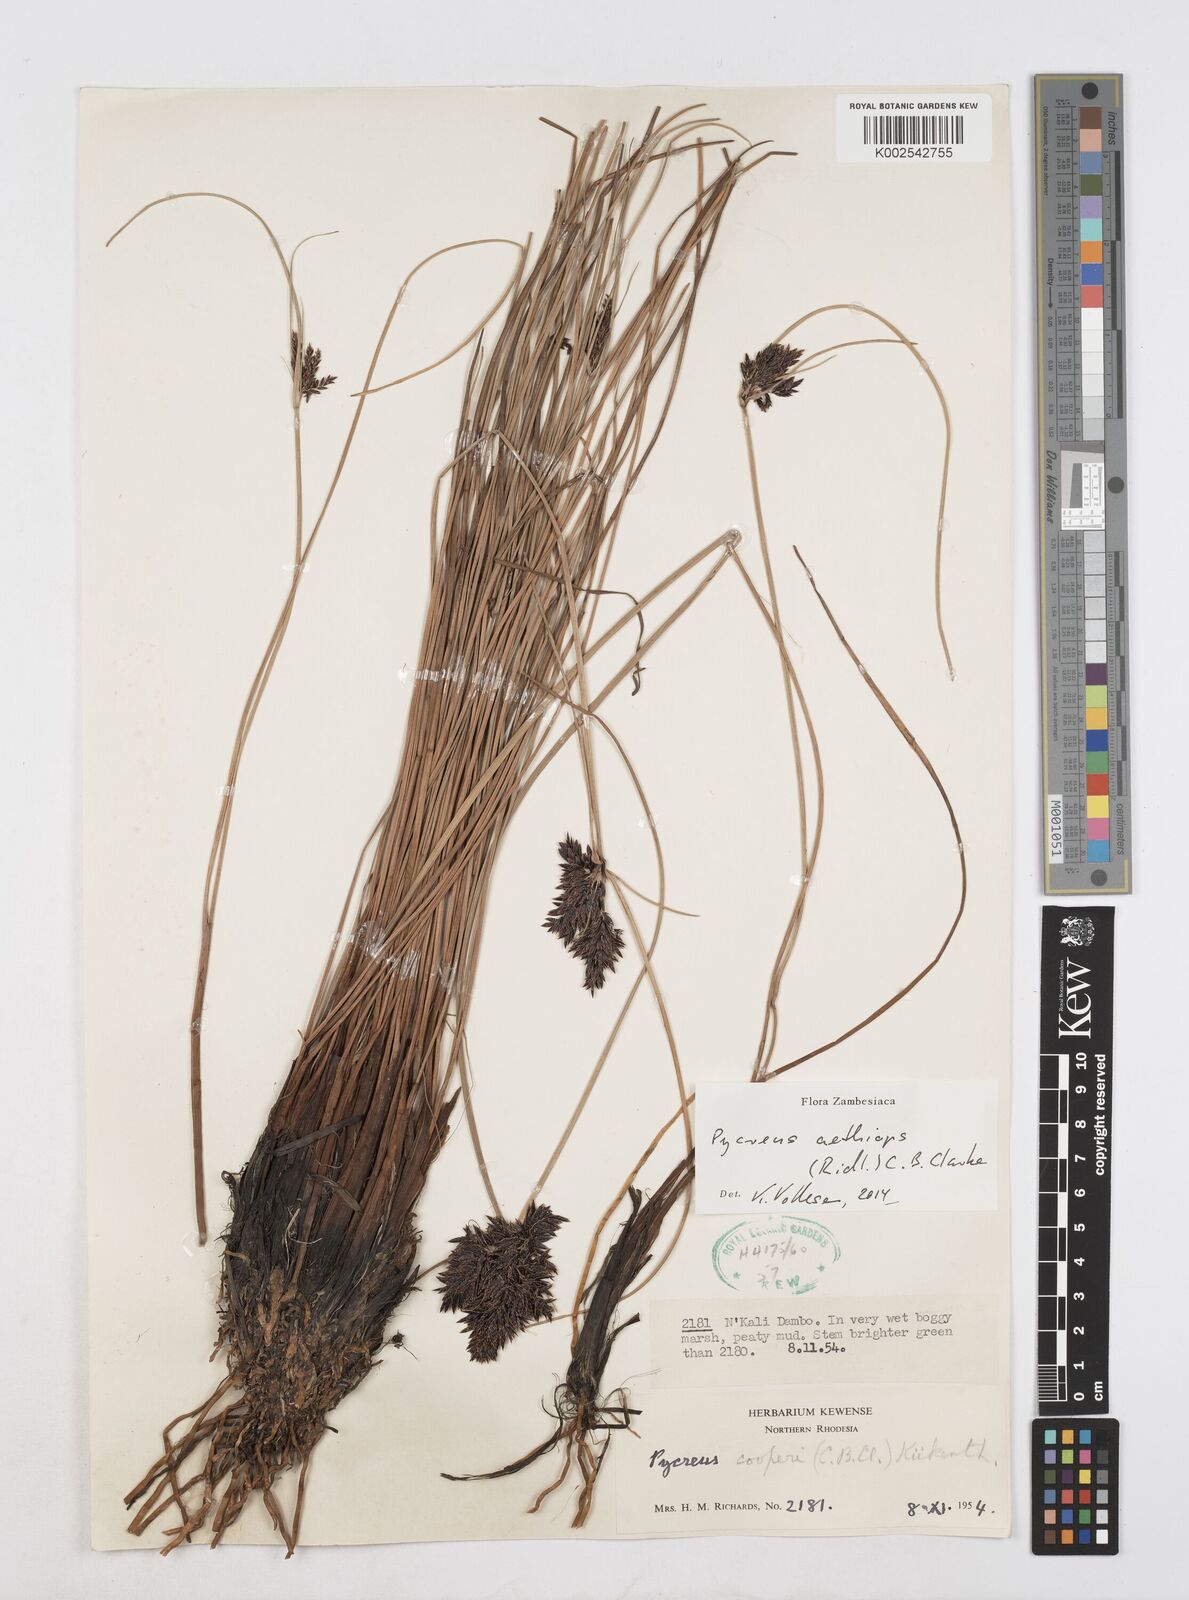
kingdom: Plantae
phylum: Tracheophyta
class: Liliopsida
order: Poales
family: Cyperaceae
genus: Cyperus
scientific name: Cyperus aethiops
